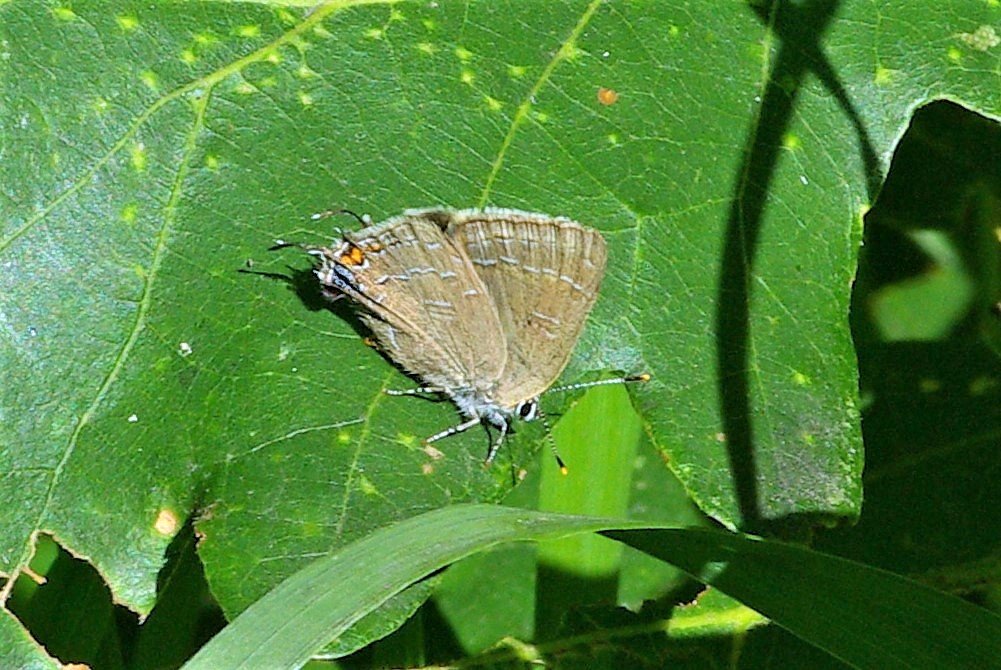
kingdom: Animalia
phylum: Arthropoda
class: Insecta
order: Lepidoptera
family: Lycaenidae
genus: Satyrium
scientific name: Satyrium calanus
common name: Banded Hairstreak
